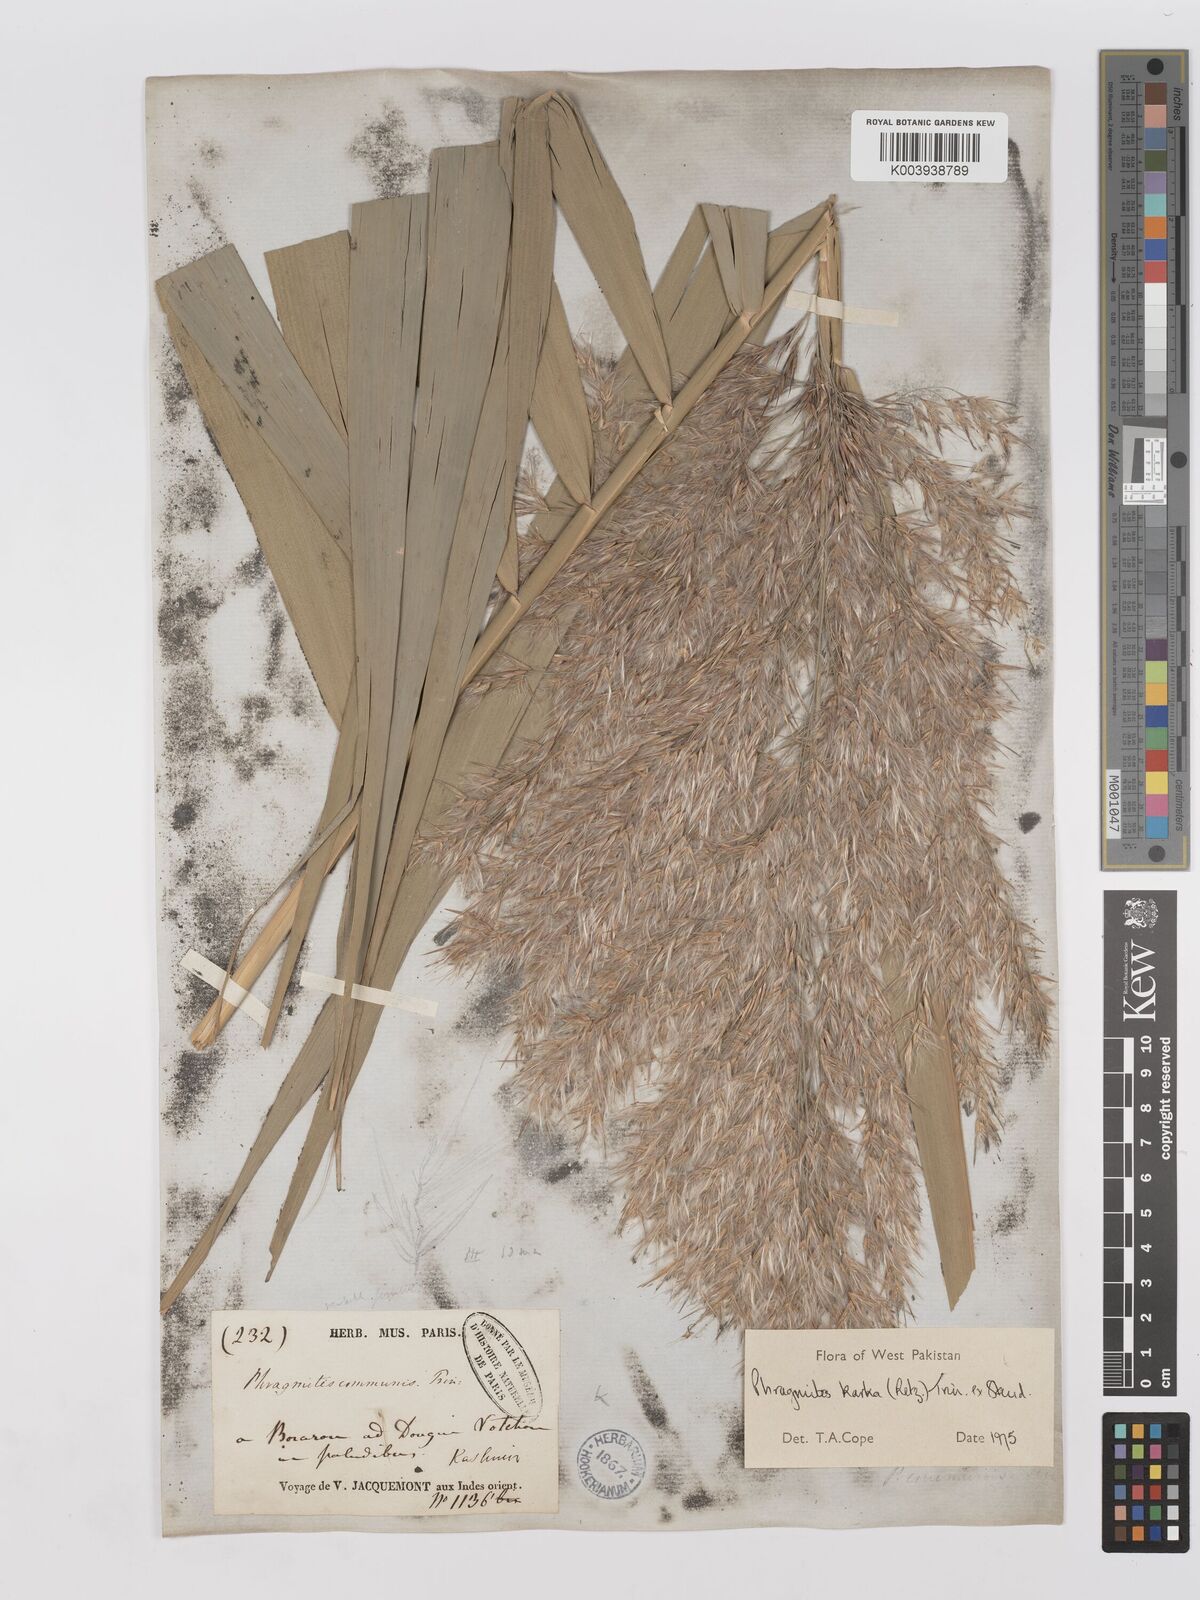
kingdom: Plantae
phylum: Tracheophyta
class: Liliopsida
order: Poales
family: Poaceae
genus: Phragmites
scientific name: Phragmites karka
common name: Tropical reed
